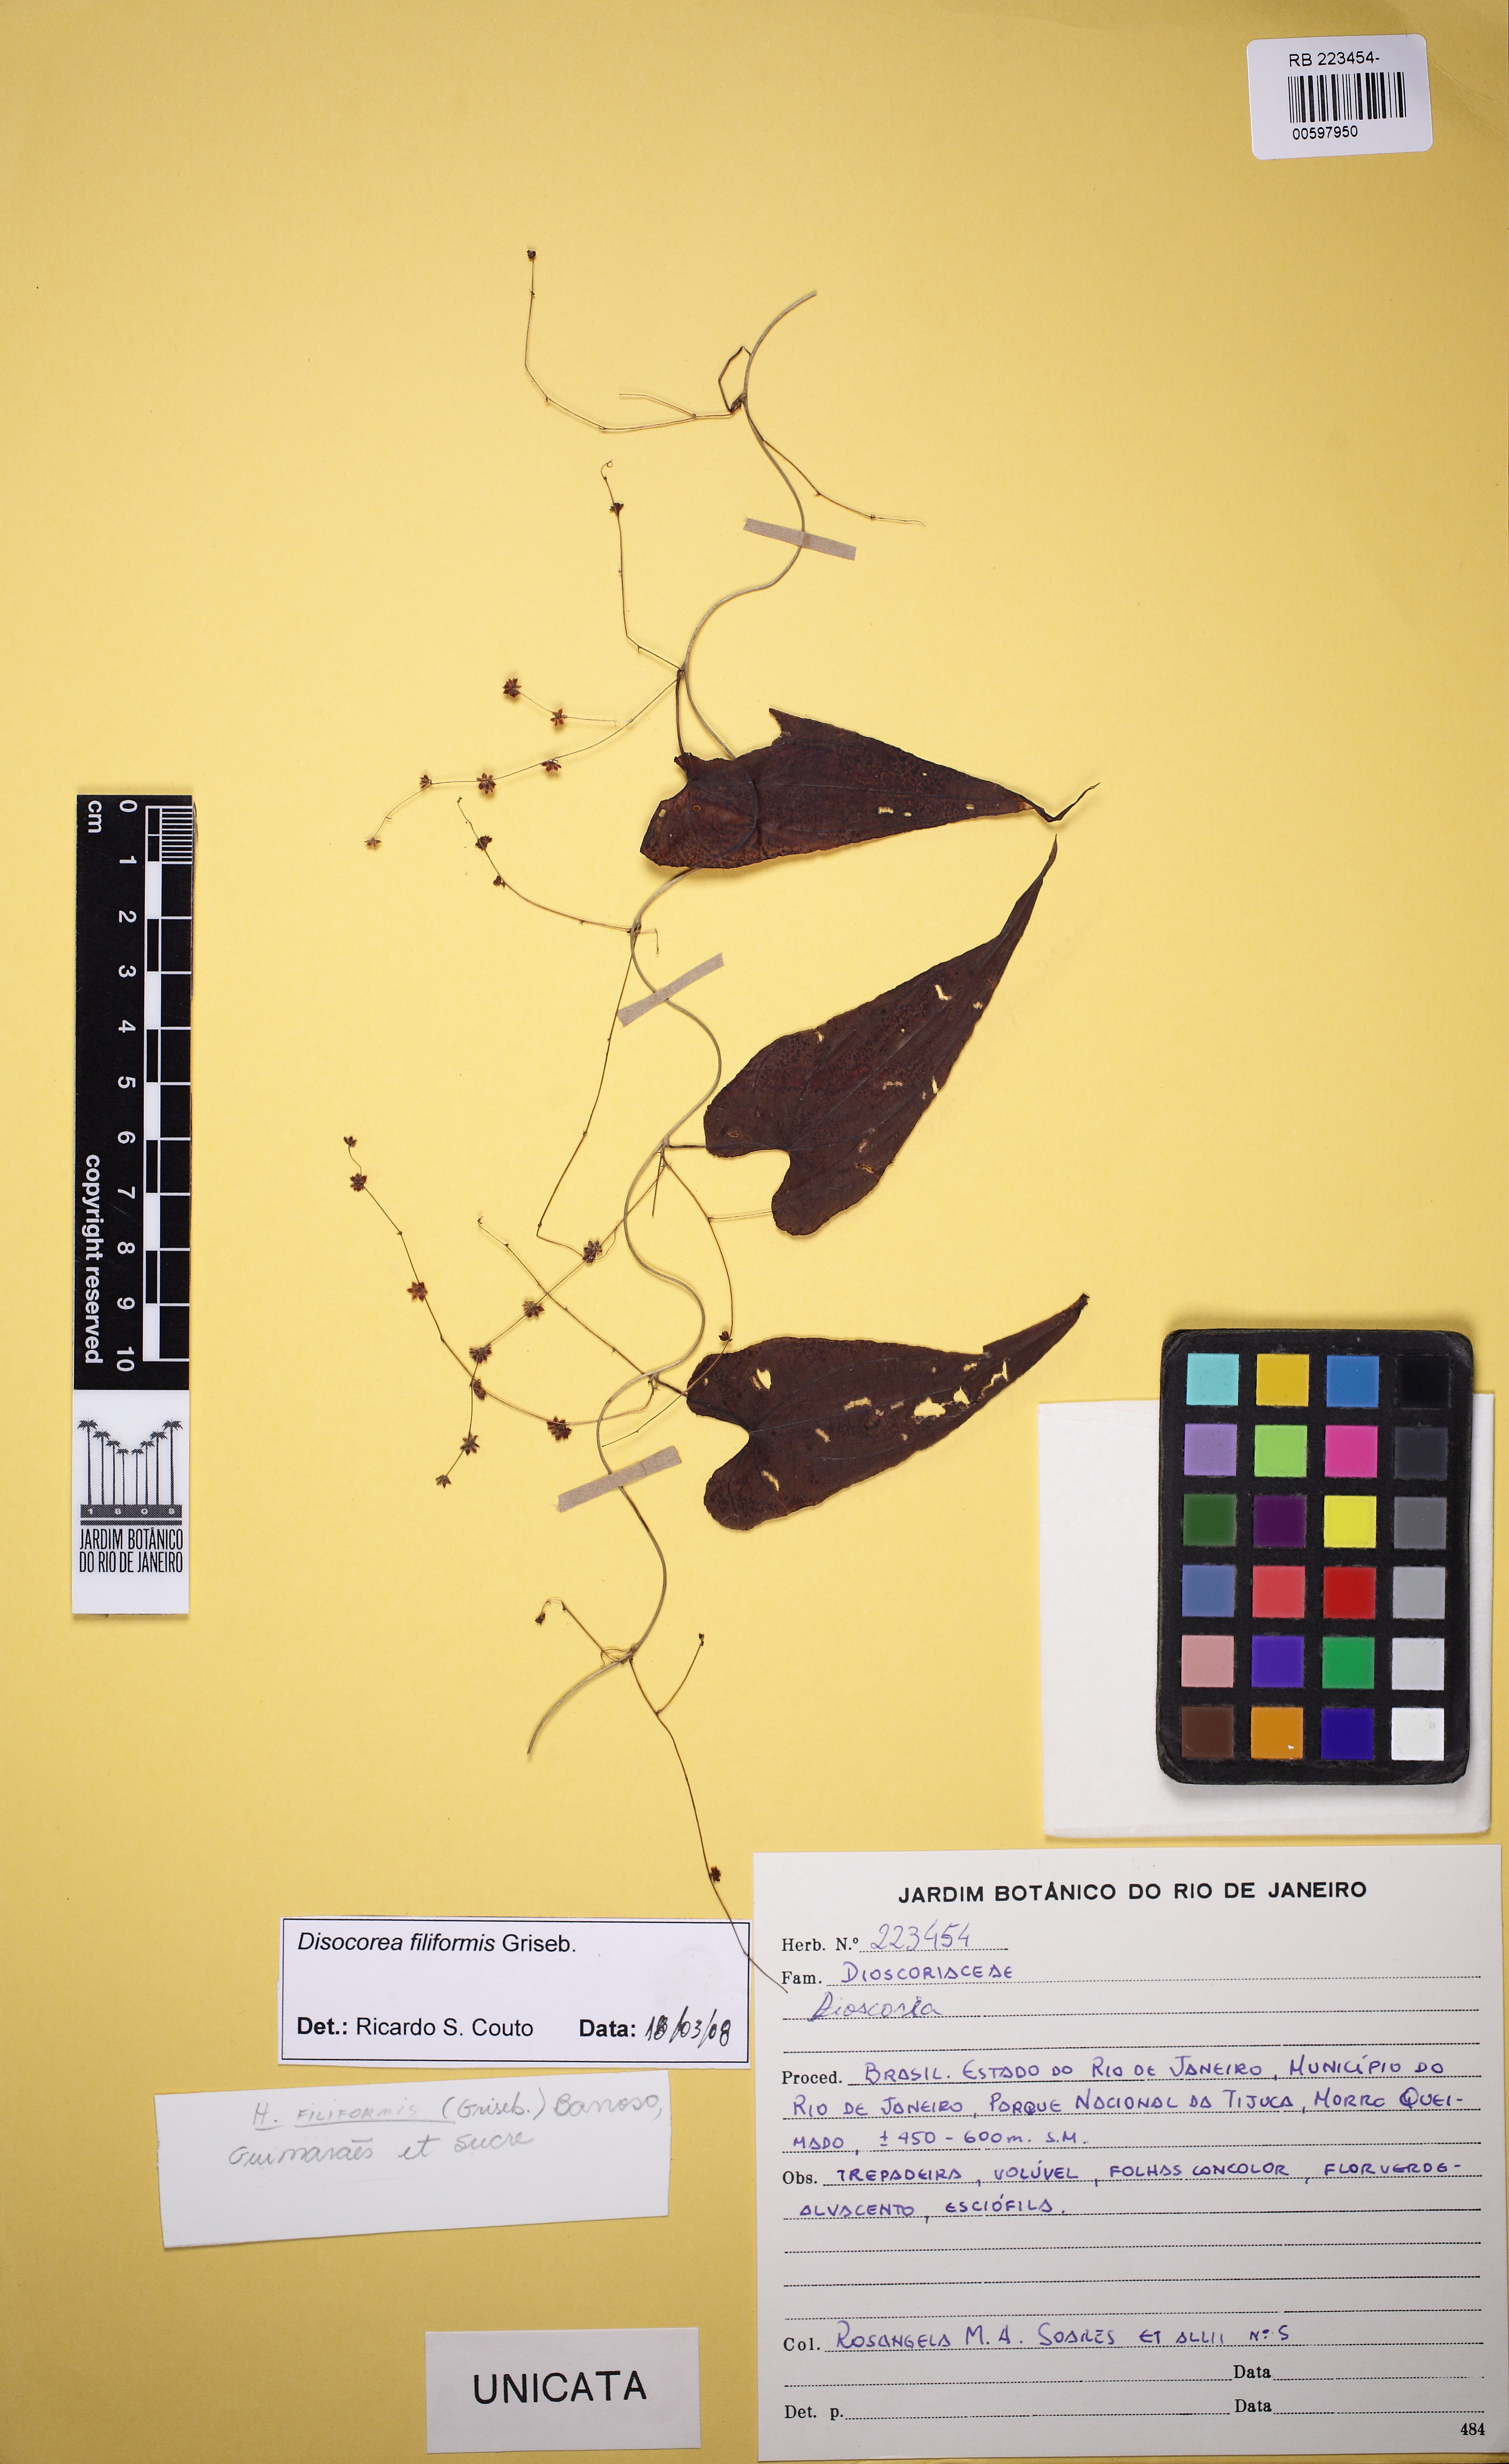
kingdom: Plantae
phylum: Tracheophyta
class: Liliopsida
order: Dioscoreales
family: Dioscoreaceae
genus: Dioscorea
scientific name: Dioscorea grisebachii
